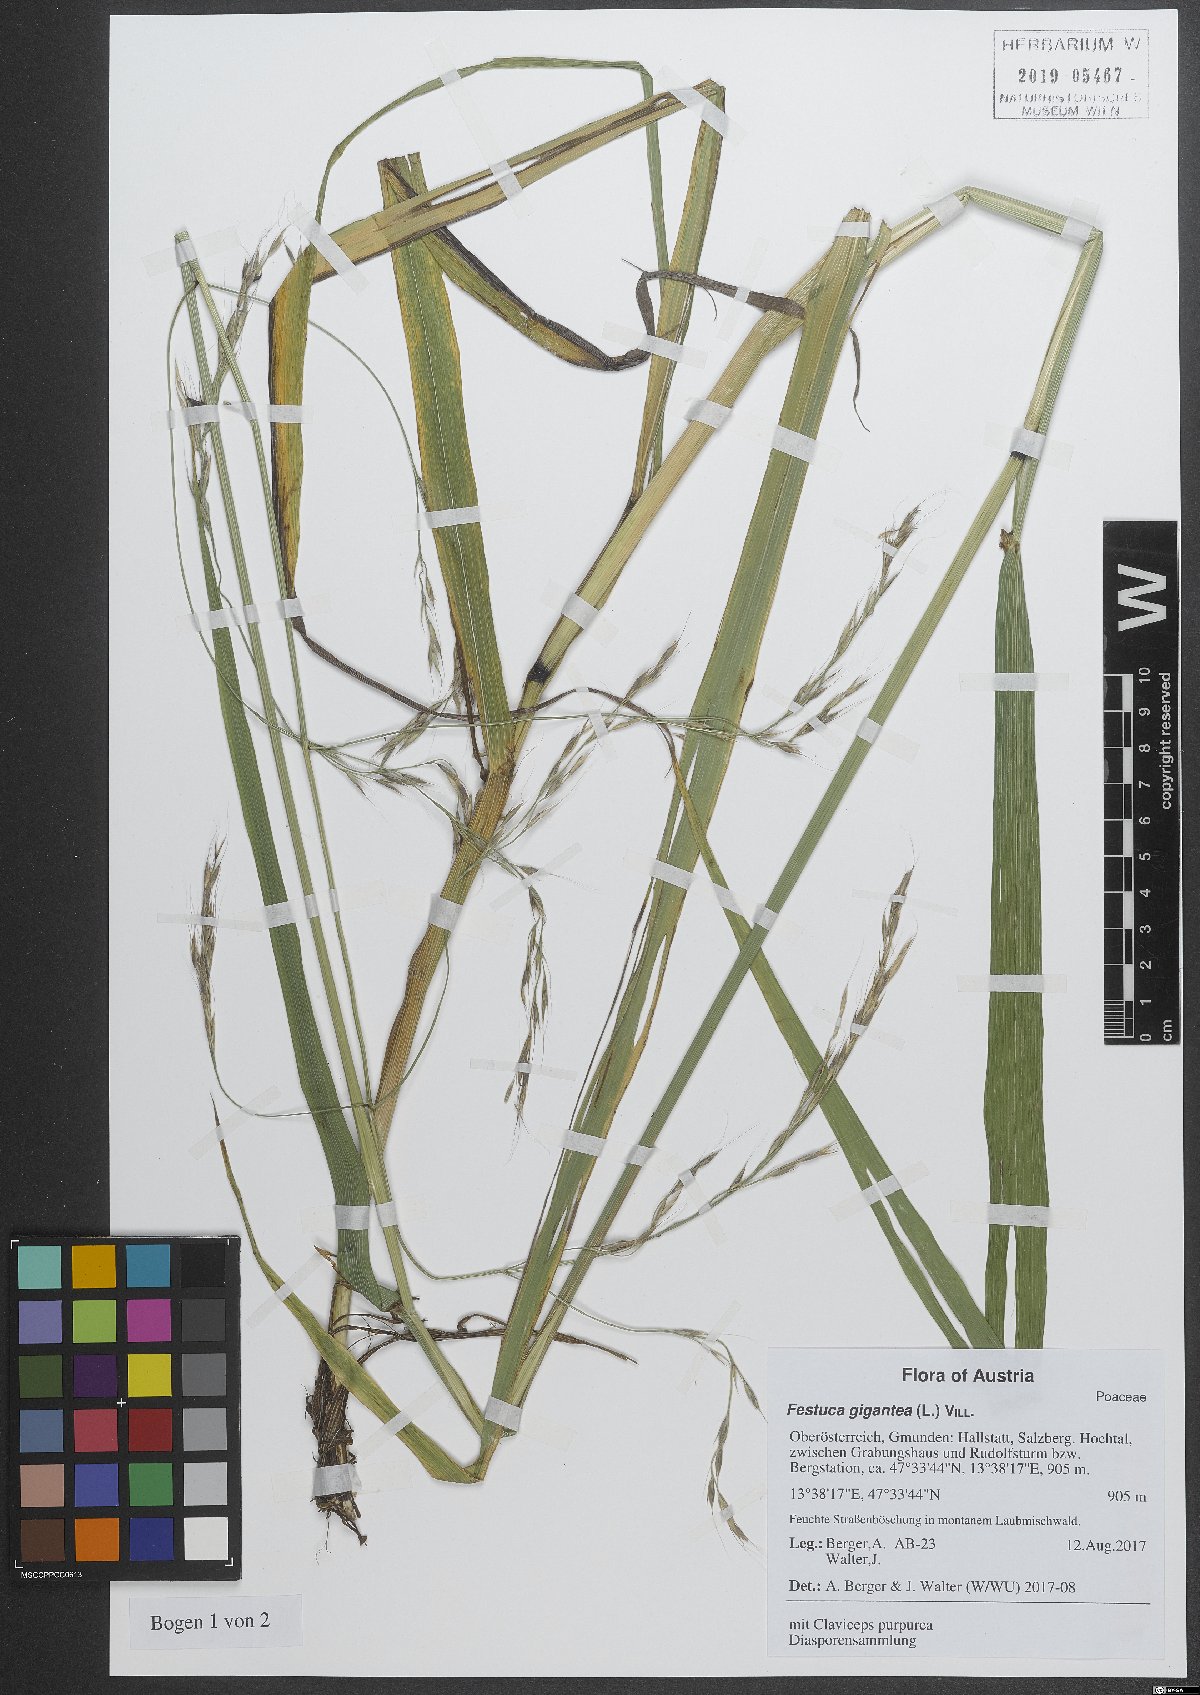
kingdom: Plantae
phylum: Tracheophyta
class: Liliopsida
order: Poales
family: Poaceae
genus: Lolium
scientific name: Lolium giganteum
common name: Giant fescue
